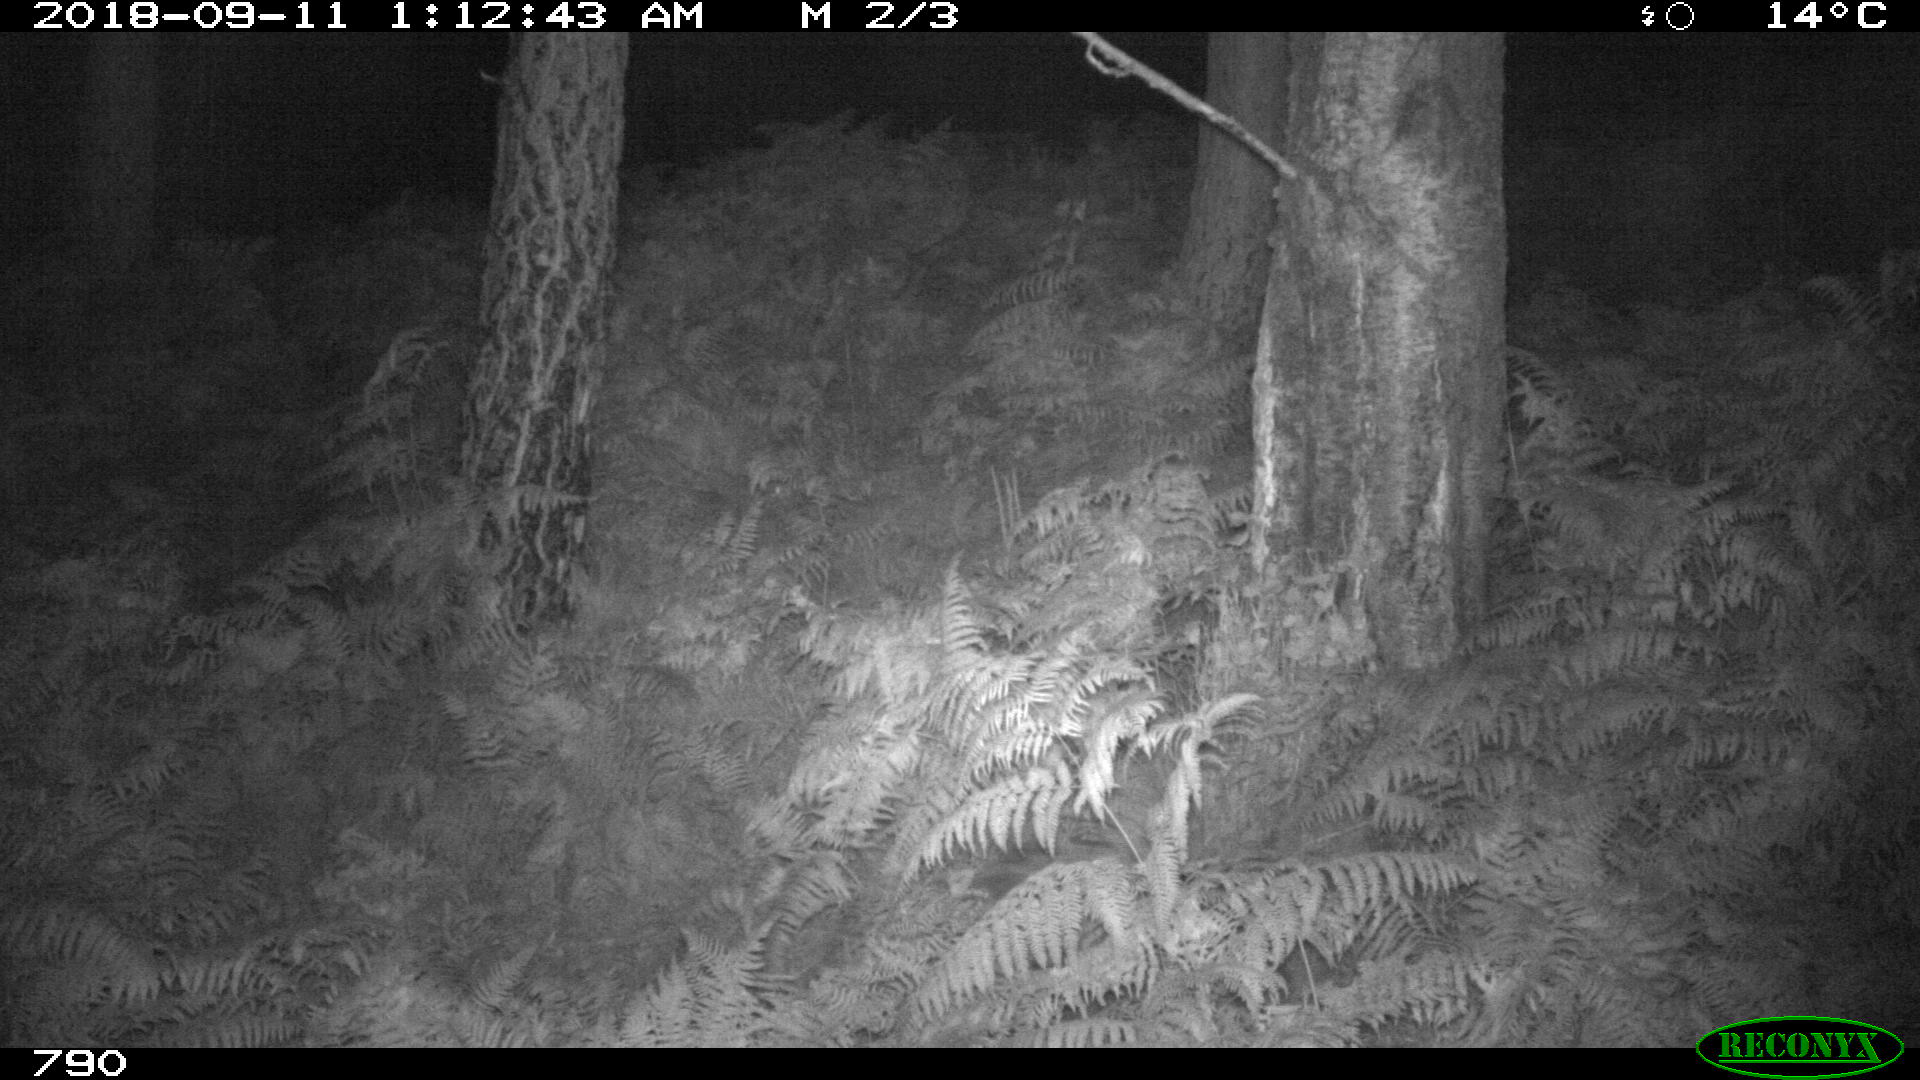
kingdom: Animalia
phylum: Chordata
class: Mammalia
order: Artiodactyla
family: Suidae
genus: Sus
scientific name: Sus scrofa
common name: Wild boar
